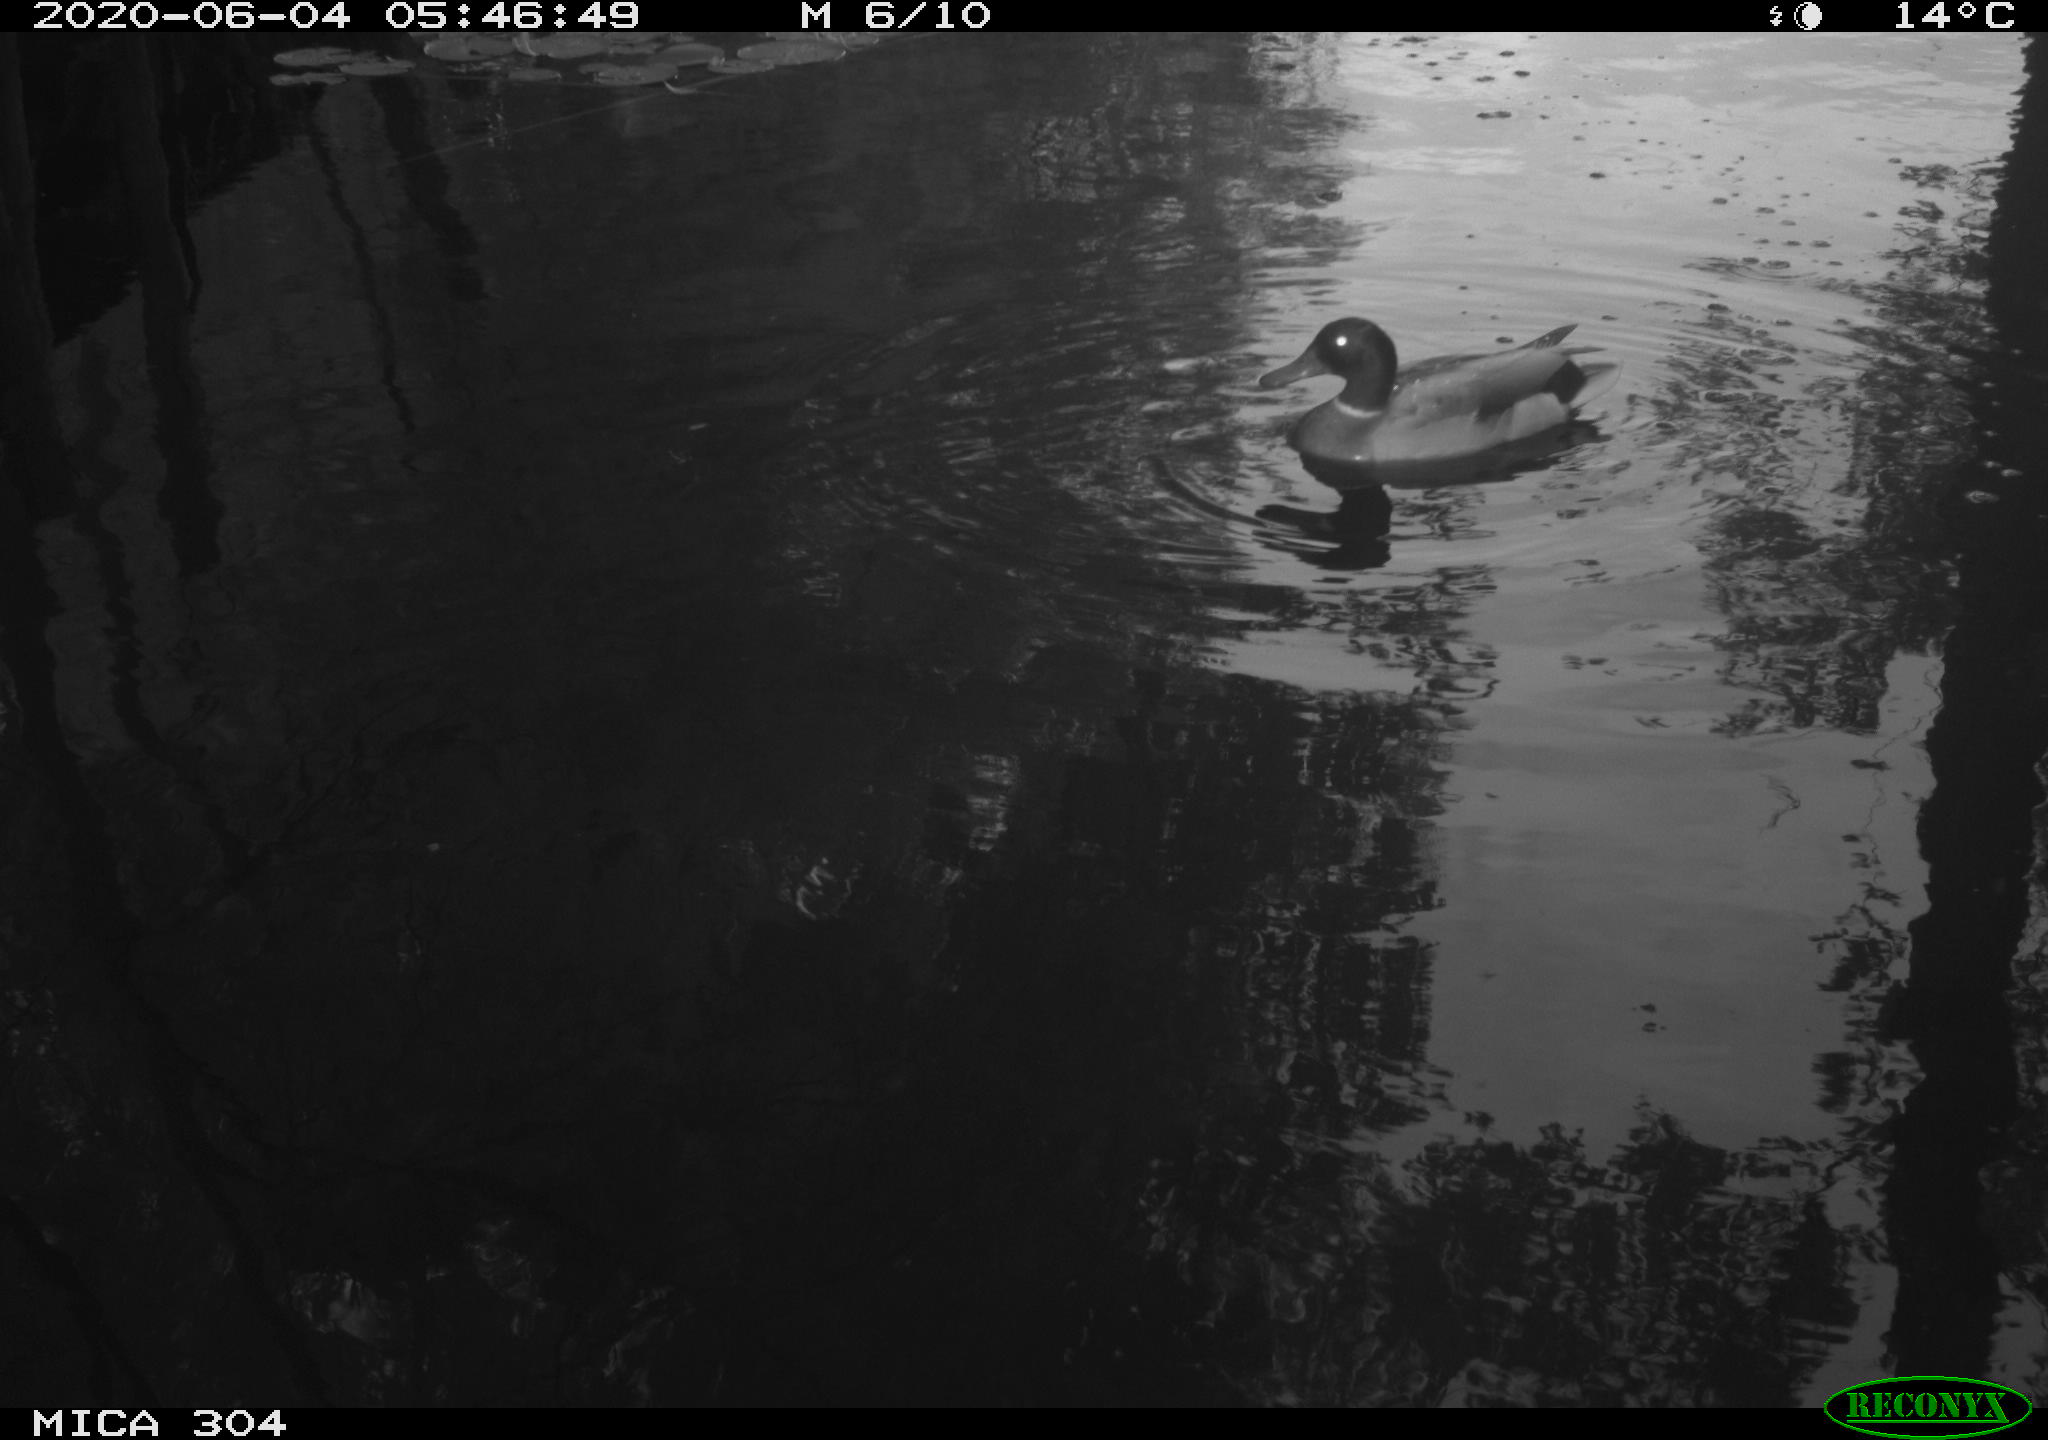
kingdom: Animalia
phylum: Chordata
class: Aves
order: Anseriformes
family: Anatidae
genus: Anas
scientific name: Anas platyrhynchos
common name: Mallard
